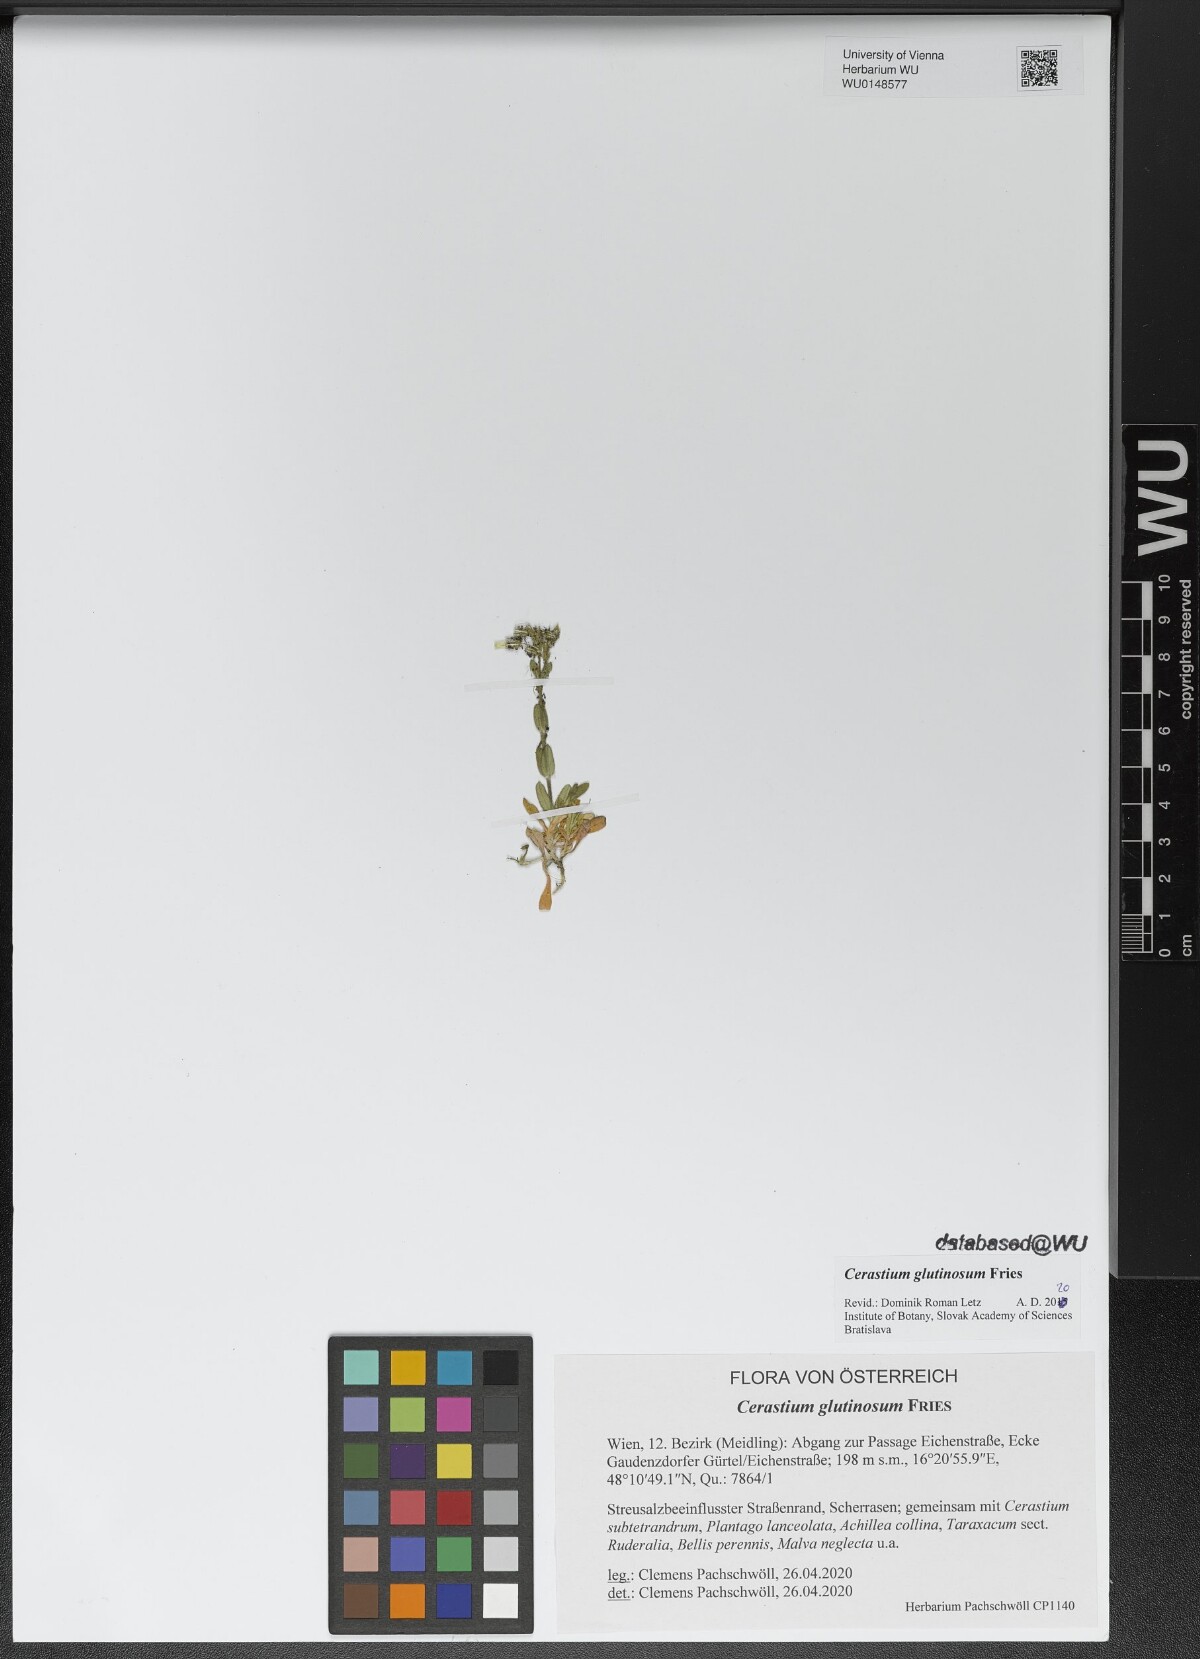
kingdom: Plantae
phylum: Tracheophyta
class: Magnoliopsida
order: Caryophyllales
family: Caryophyllaceae
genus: Cerastium
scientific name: Cerastium glutinosum
